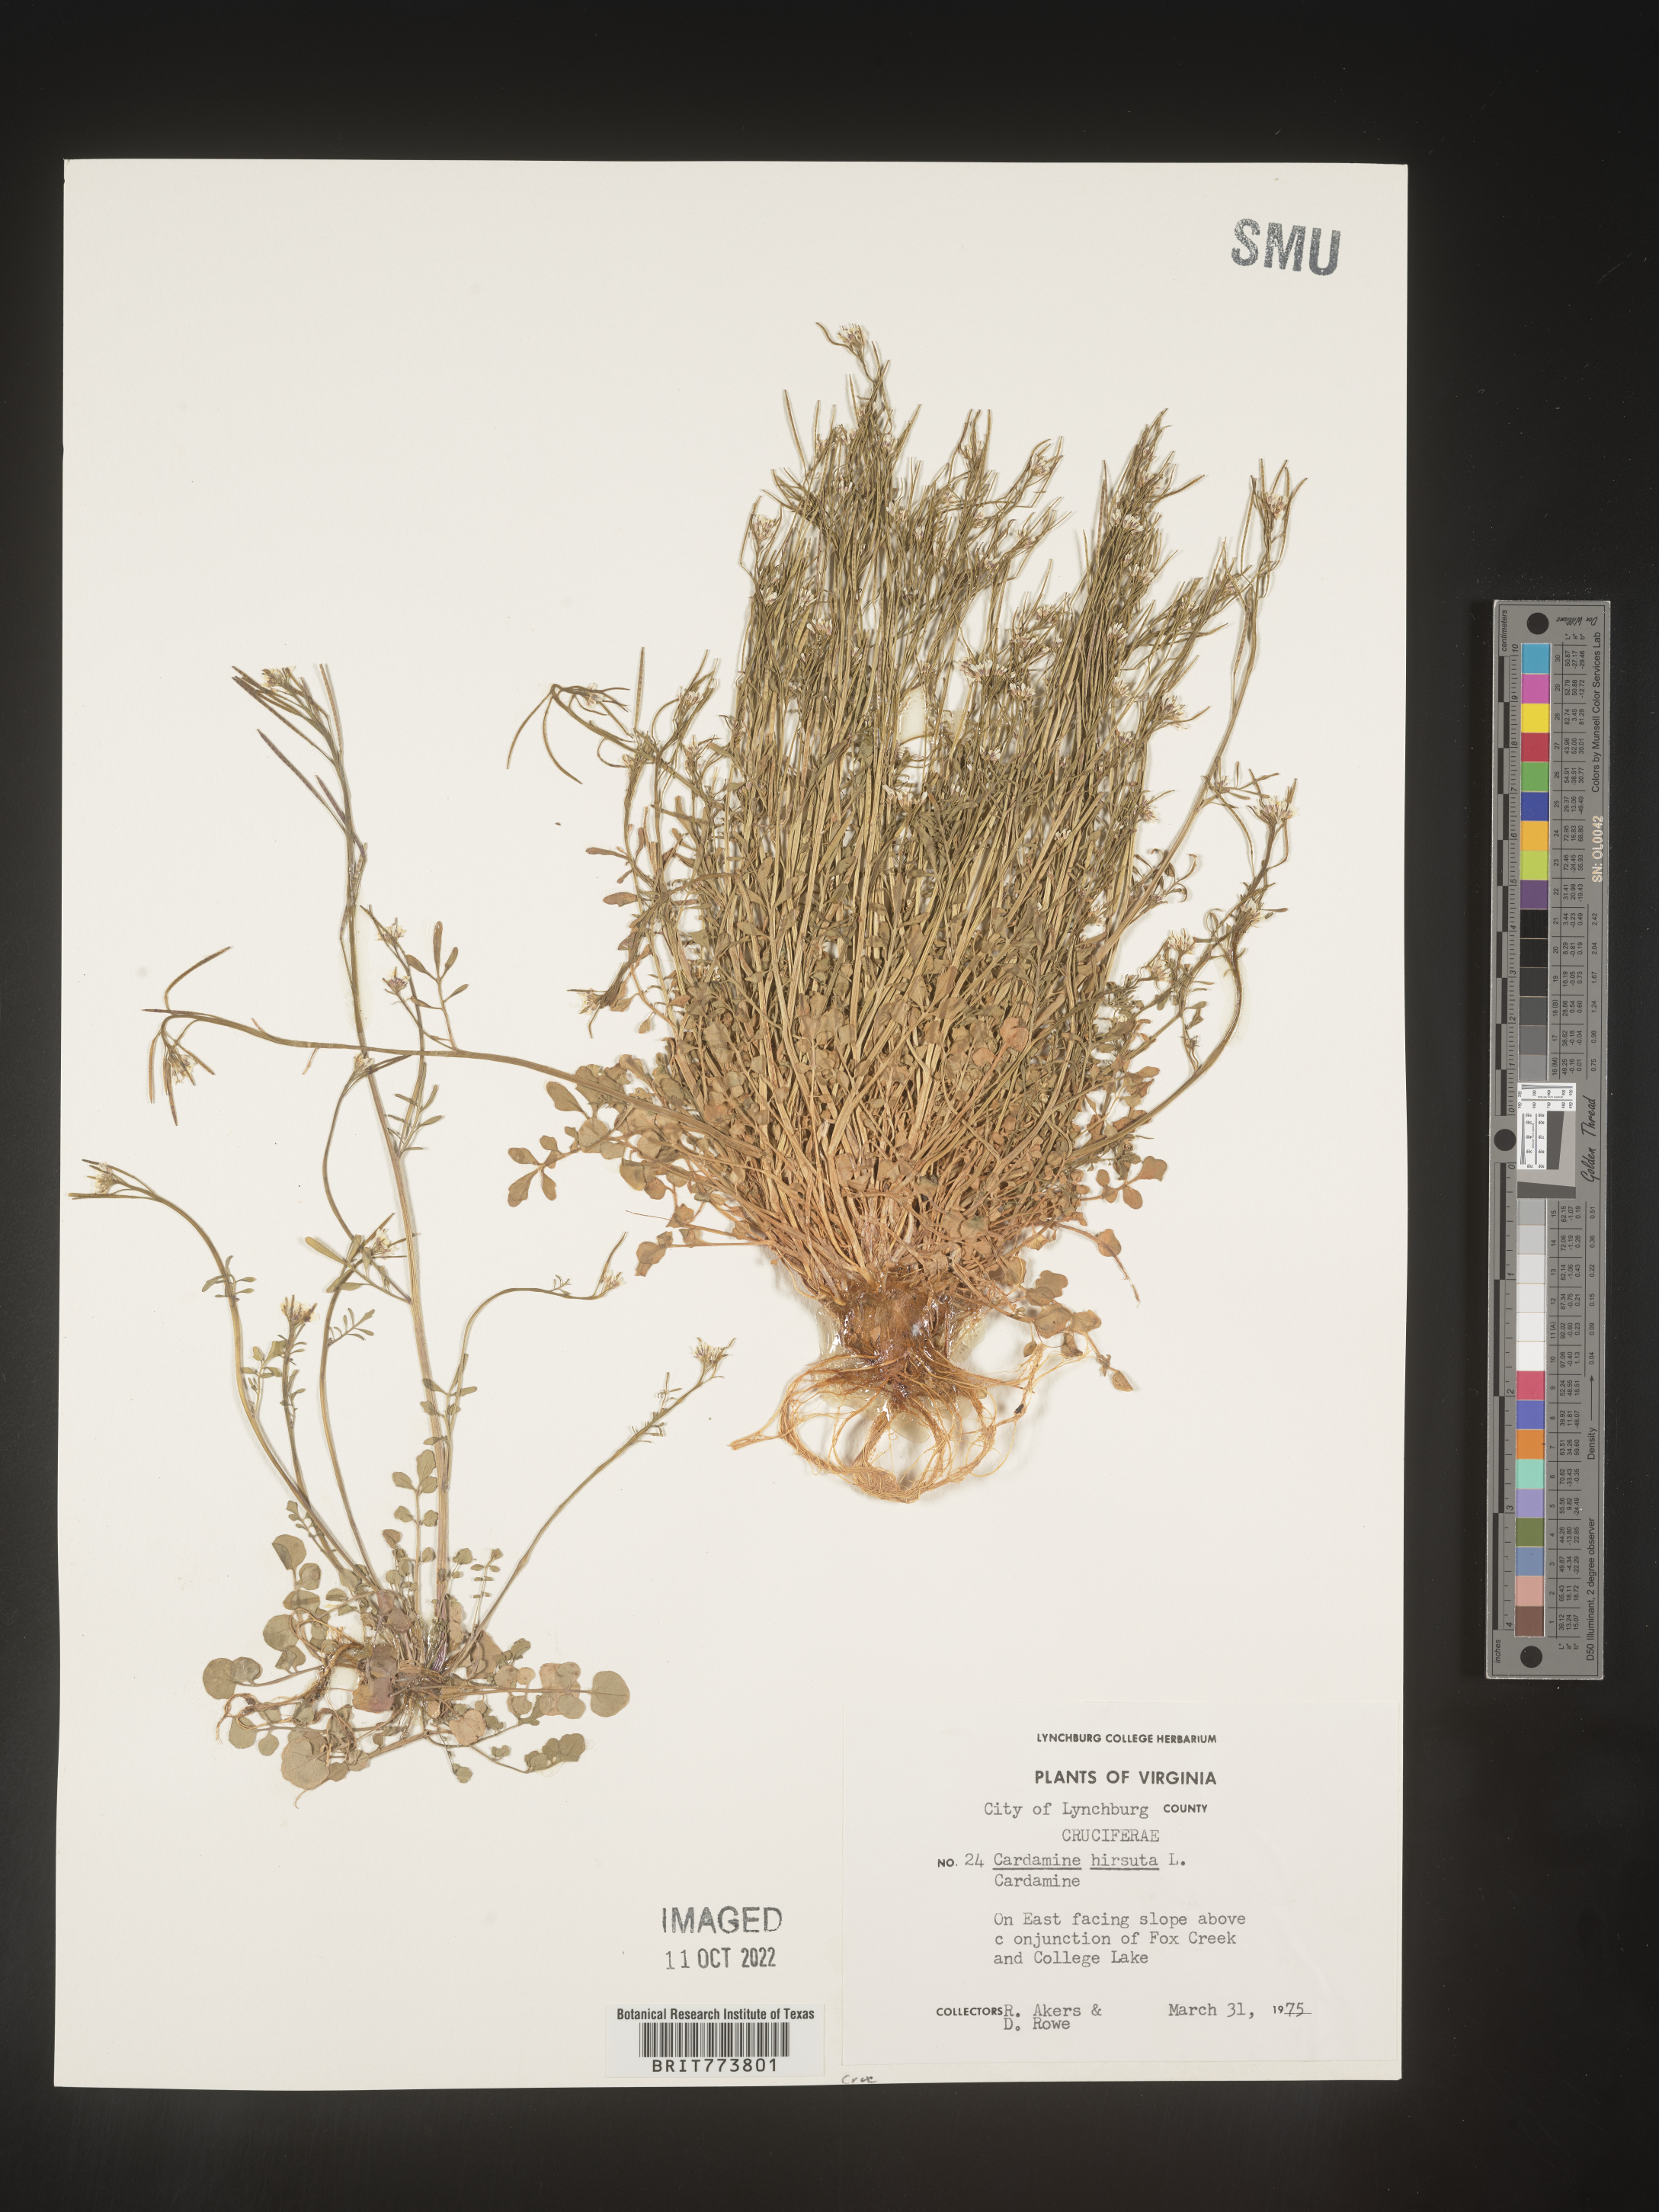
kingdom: Plantae
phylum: Tracheophyta
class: Magnoliopsida
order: Brassicales
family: Brassicaceae
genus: Cardamine
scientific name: Cardamine hirsuta
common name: Hairy bittercress
